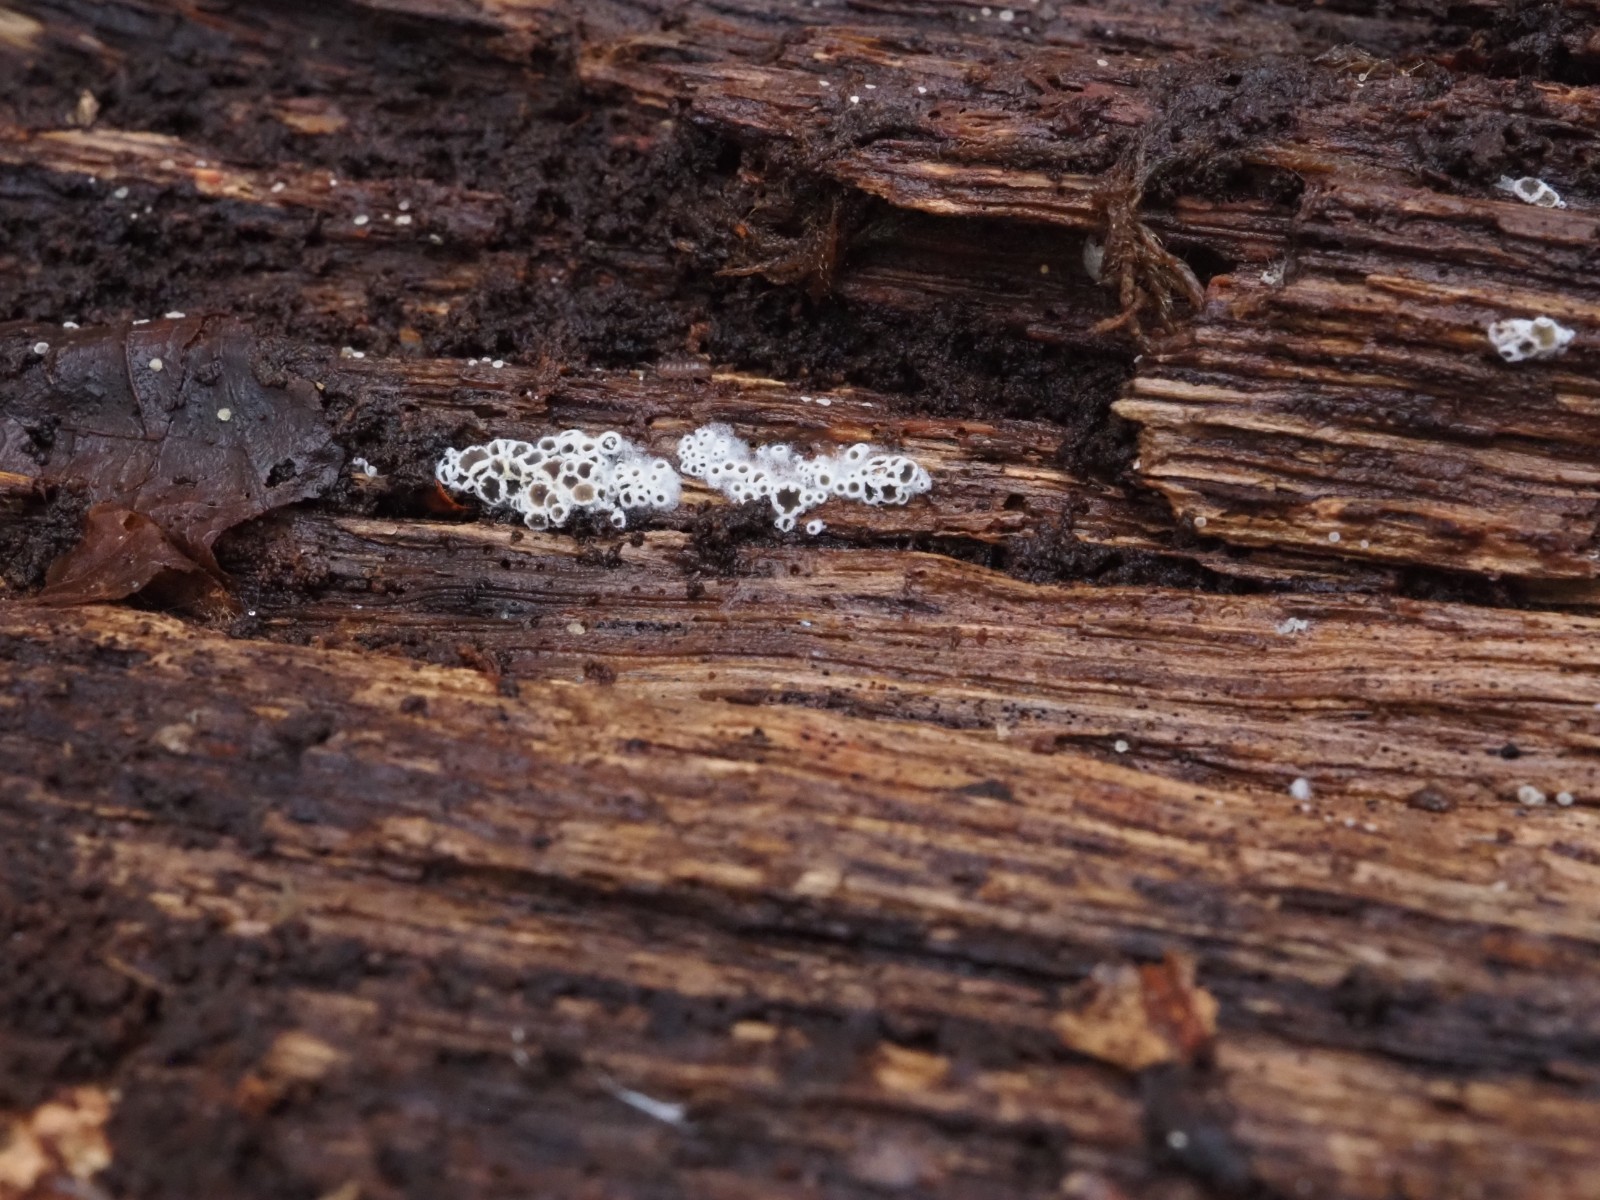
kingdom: Fungi
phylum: Ascomycota
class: Leotiomycetes
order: Helotiales
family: Arachnopezizaceae
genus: Eriopezia
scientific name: Eriopezia caesia
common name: ege-spindskive
